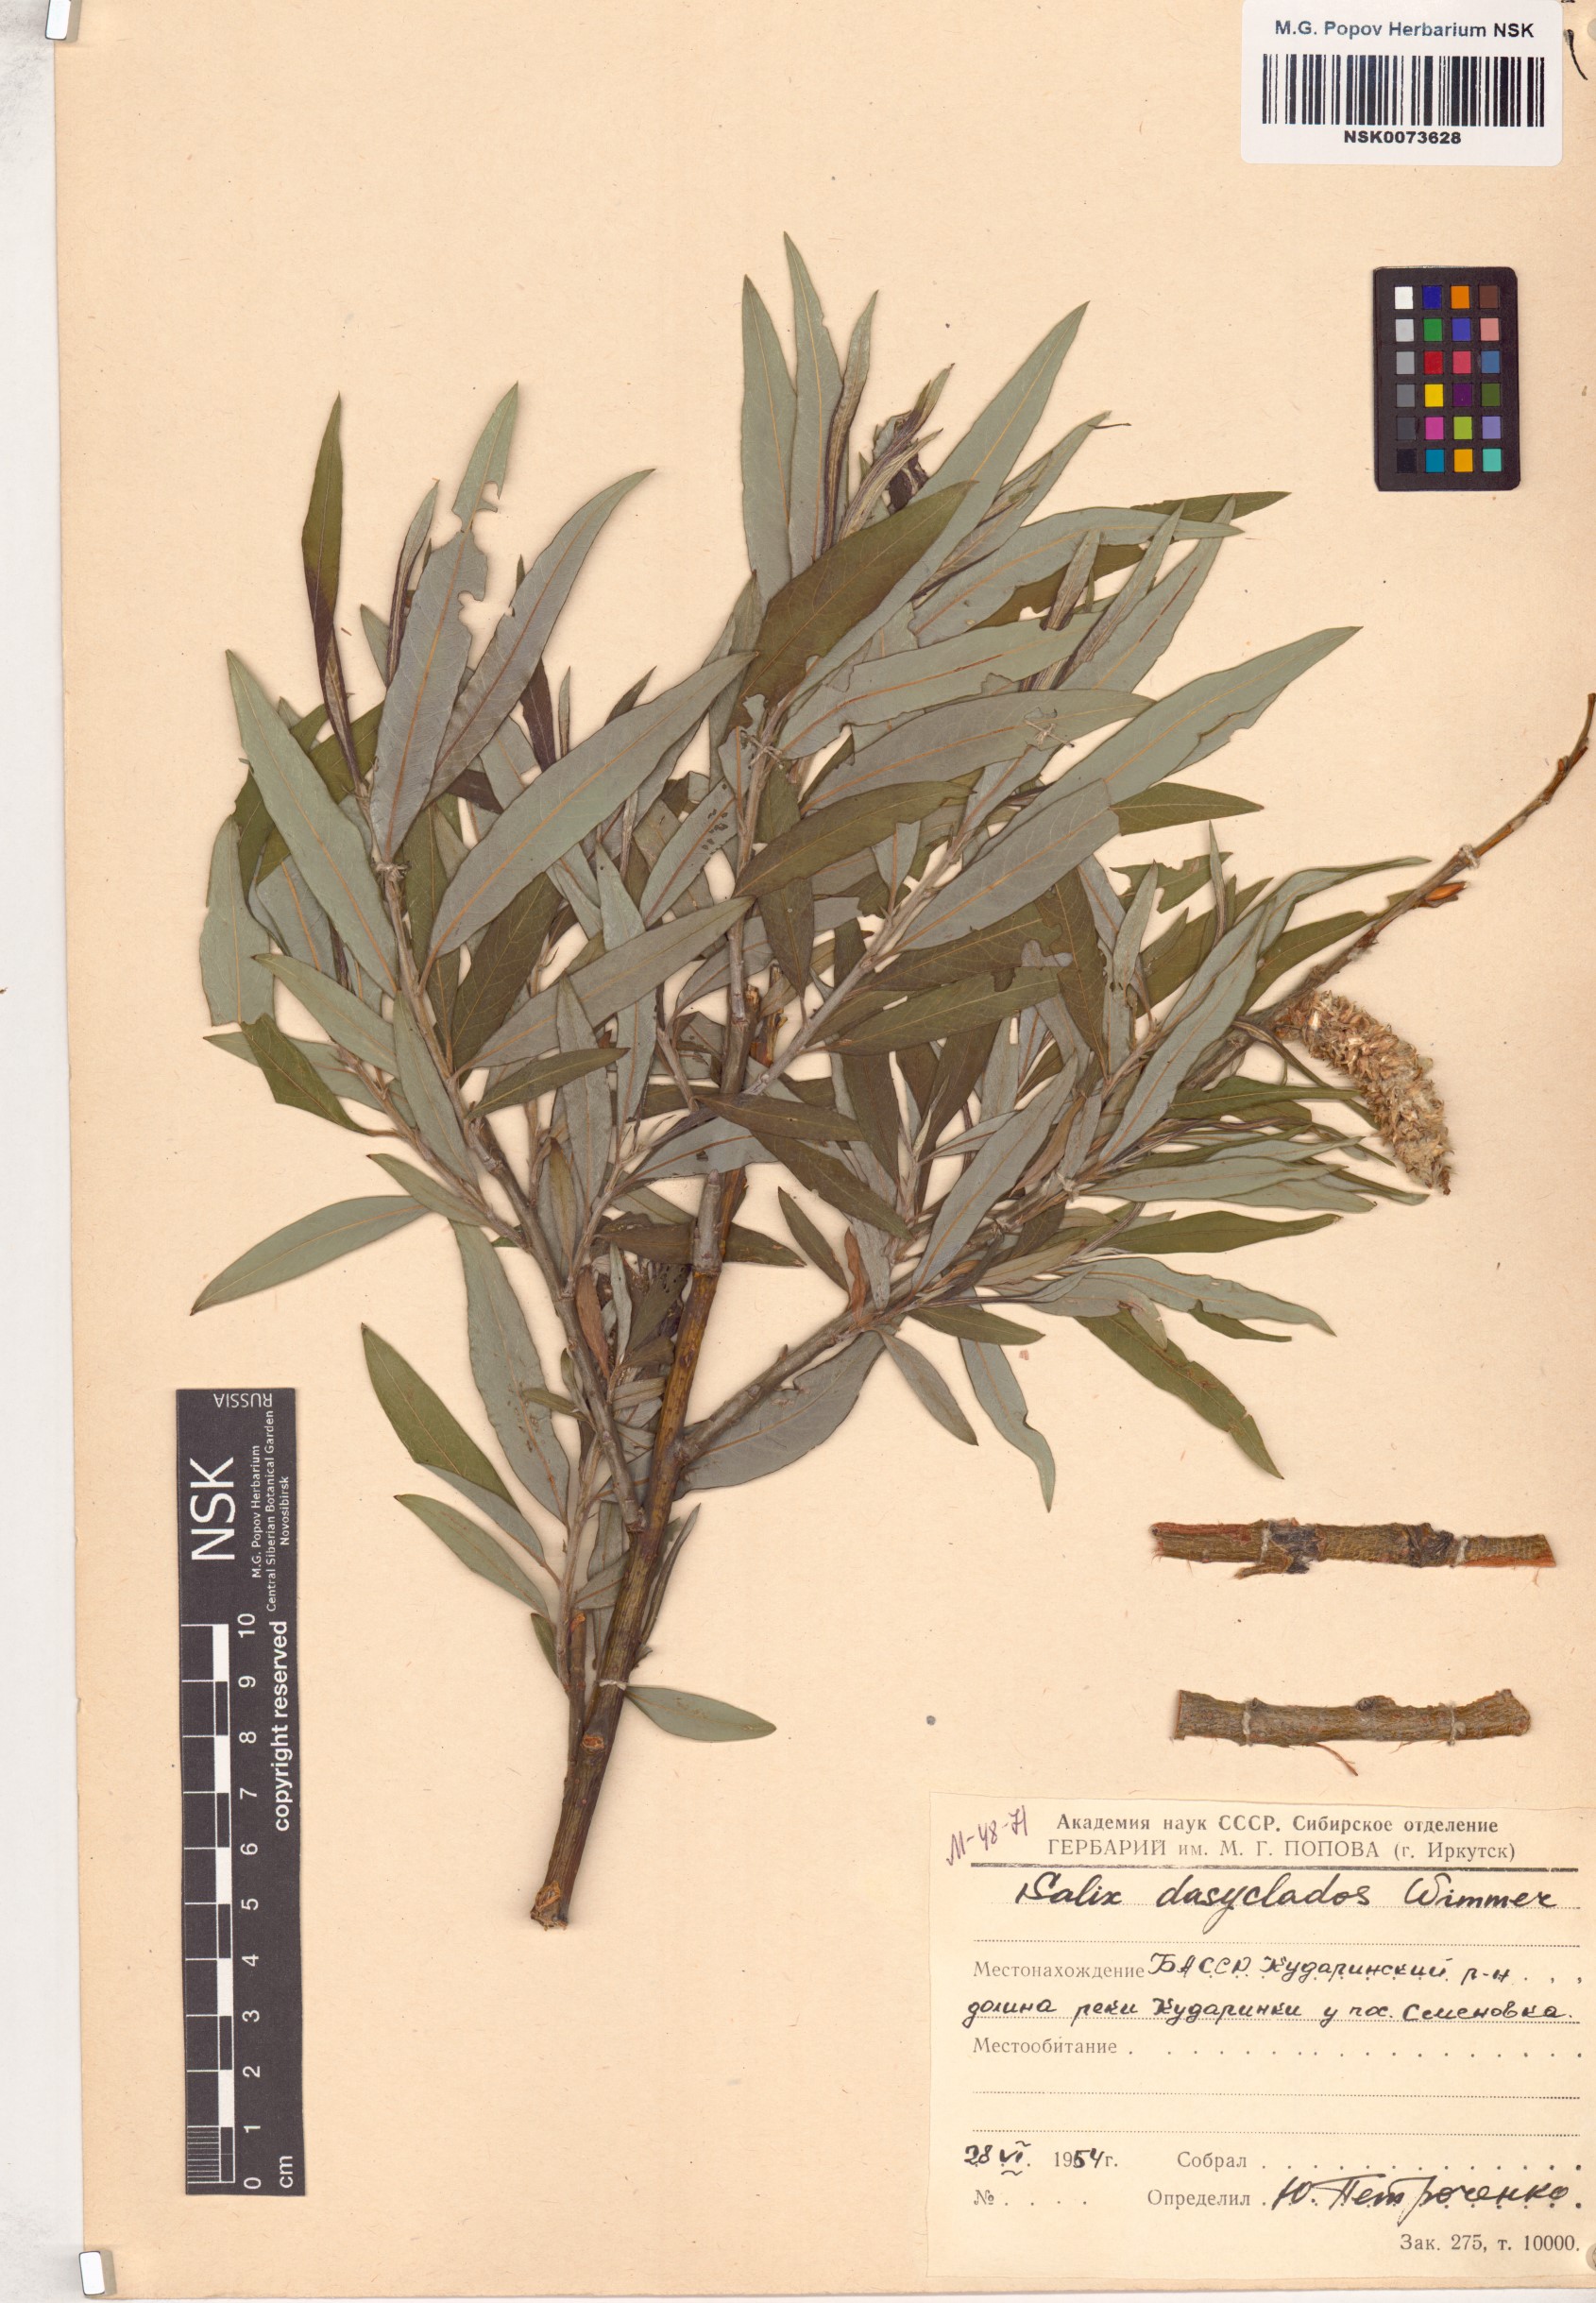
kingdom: Plantae
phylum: Tracheophyta
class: Magnoliopsida
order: Malpighiales
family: Salicaceae
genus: Salix
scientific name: Salix gmelinii
